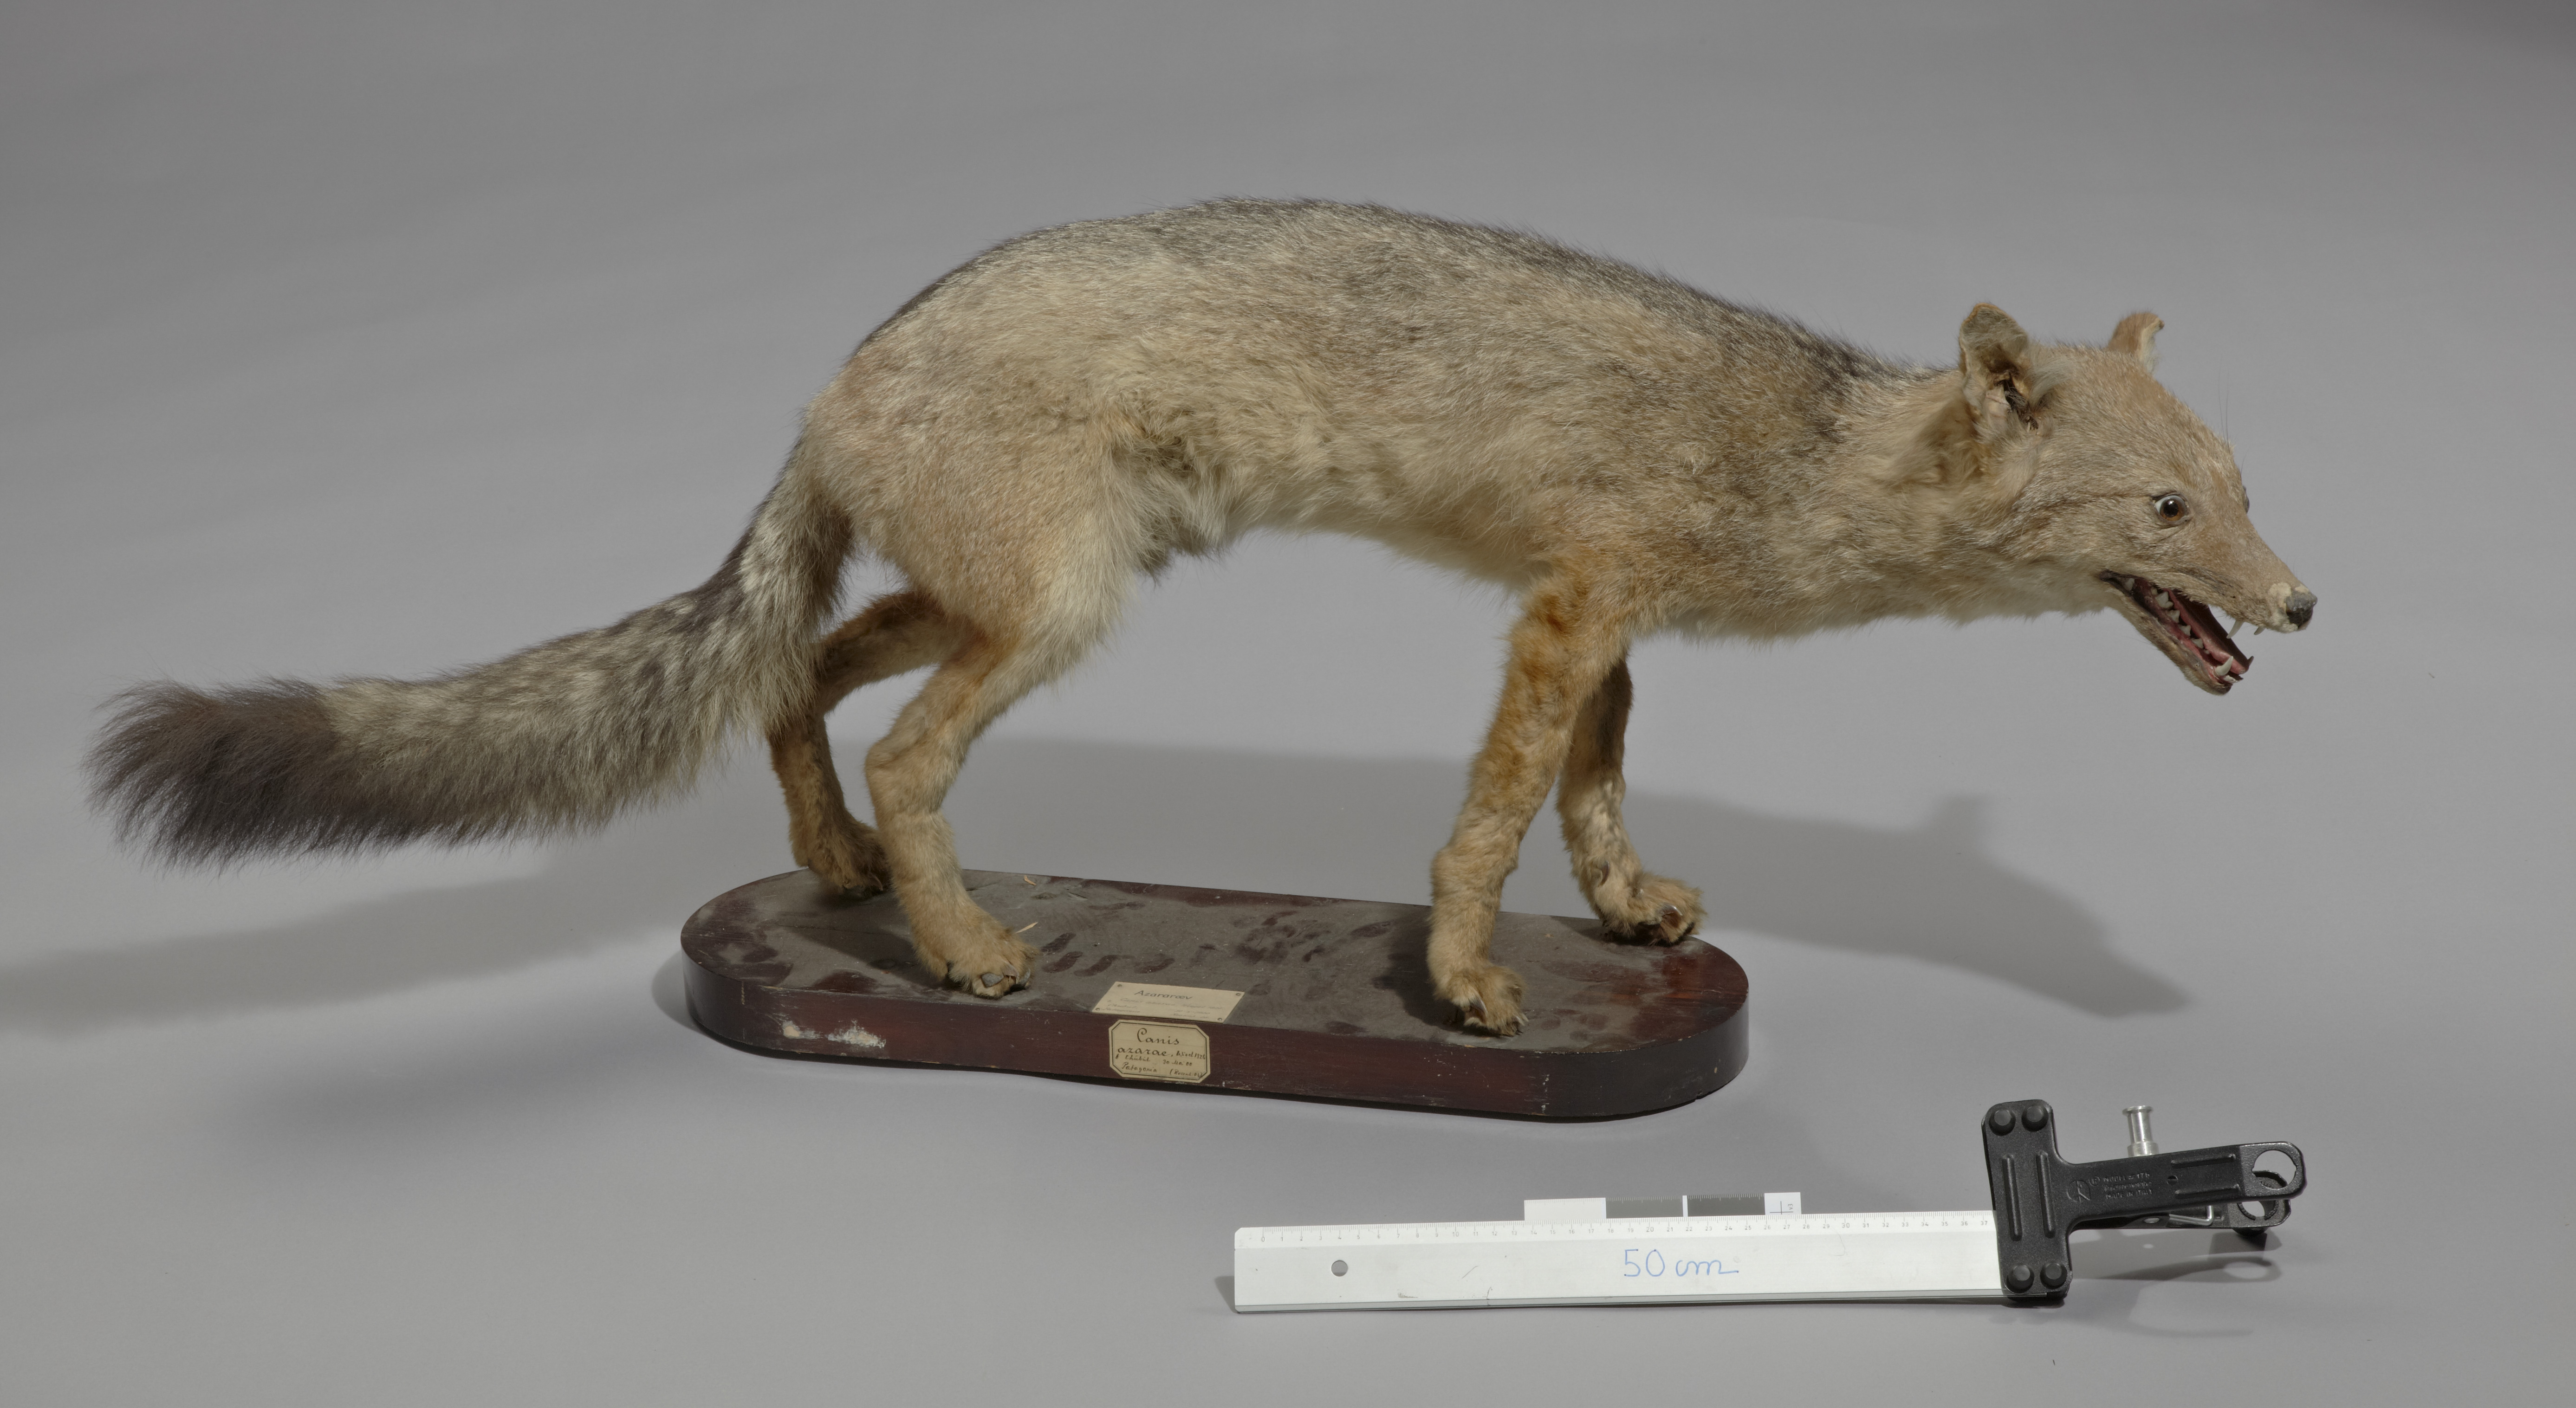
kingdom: Animalia
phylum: Chordata
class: Mammalia
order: Carnivora
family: Canidae
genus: Cerdocyon
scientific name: Cerdocyon thous
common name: Crab-eating fox
